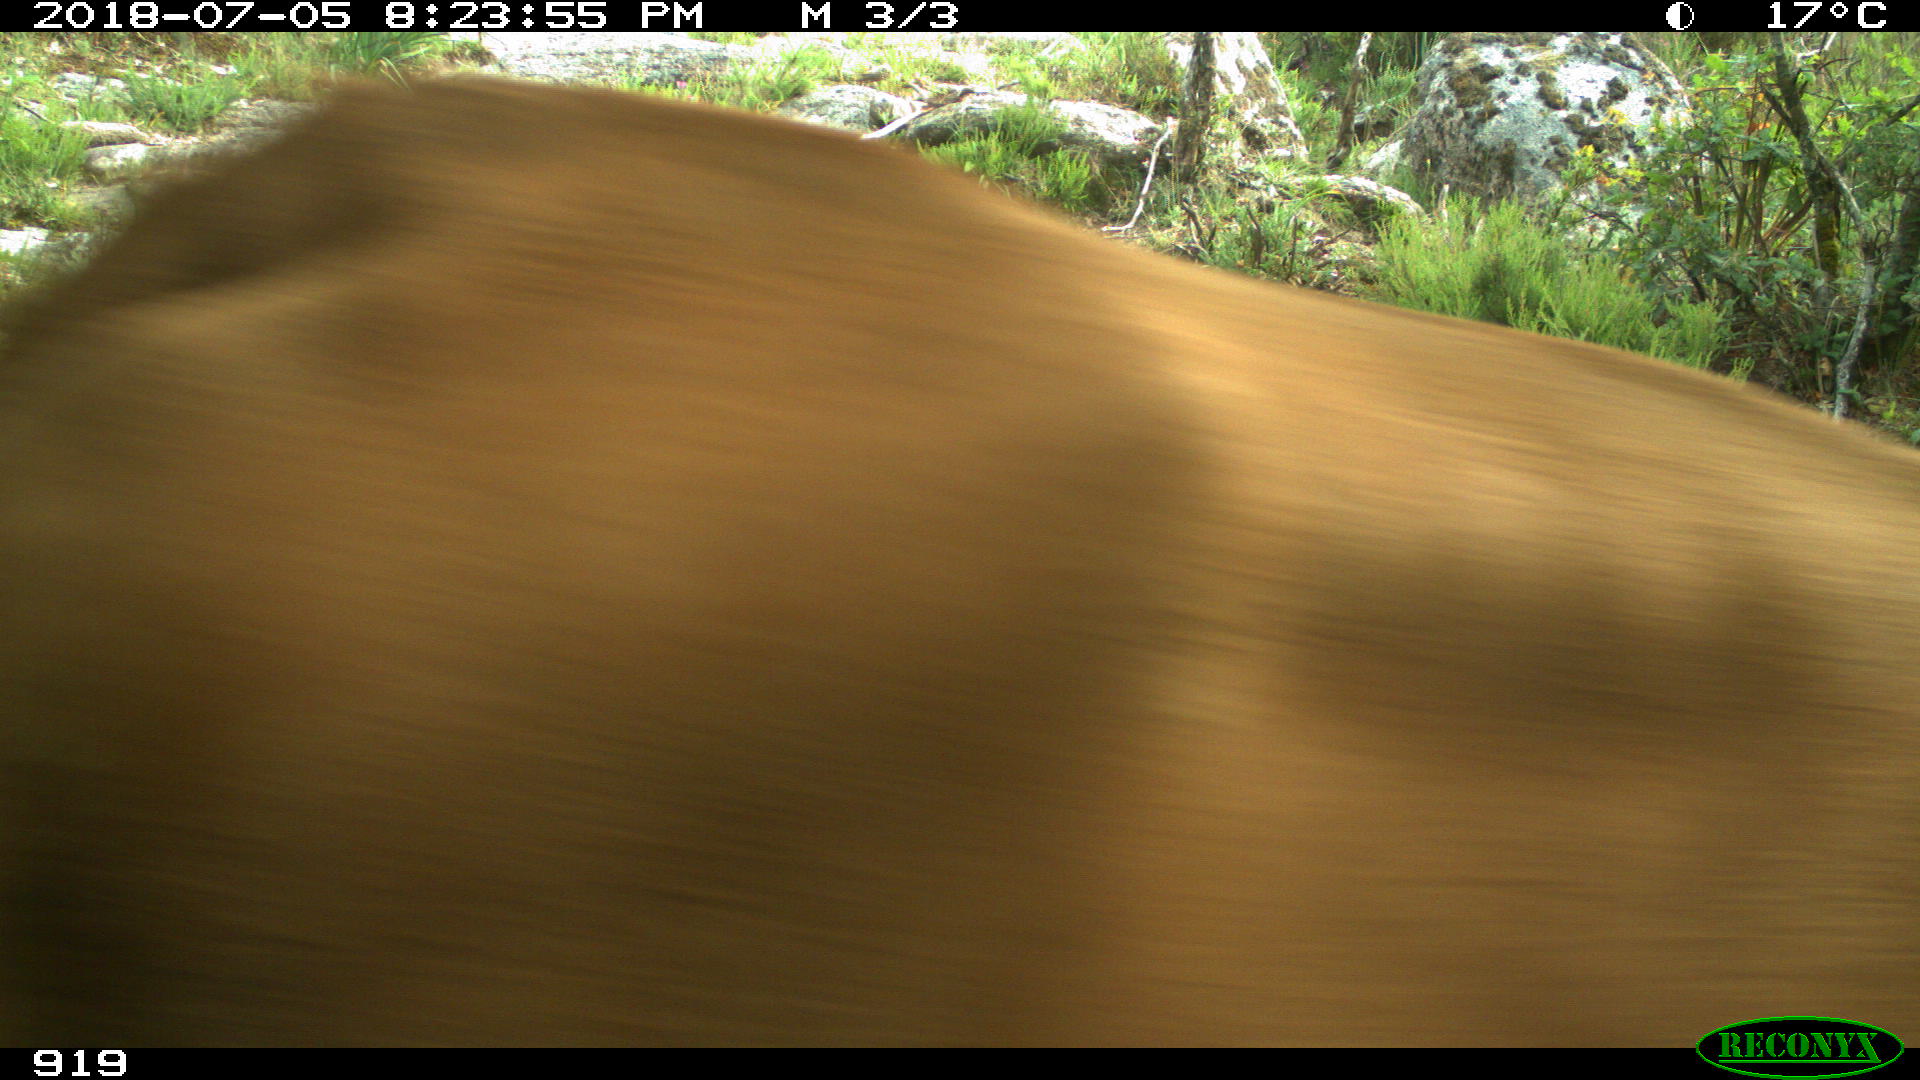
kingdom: Animalia
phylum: Chordata
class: Mammalia
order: Artiodactyla
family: Bovidae
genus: Bos
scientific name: Bos taurus
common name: Domesticated cattle
